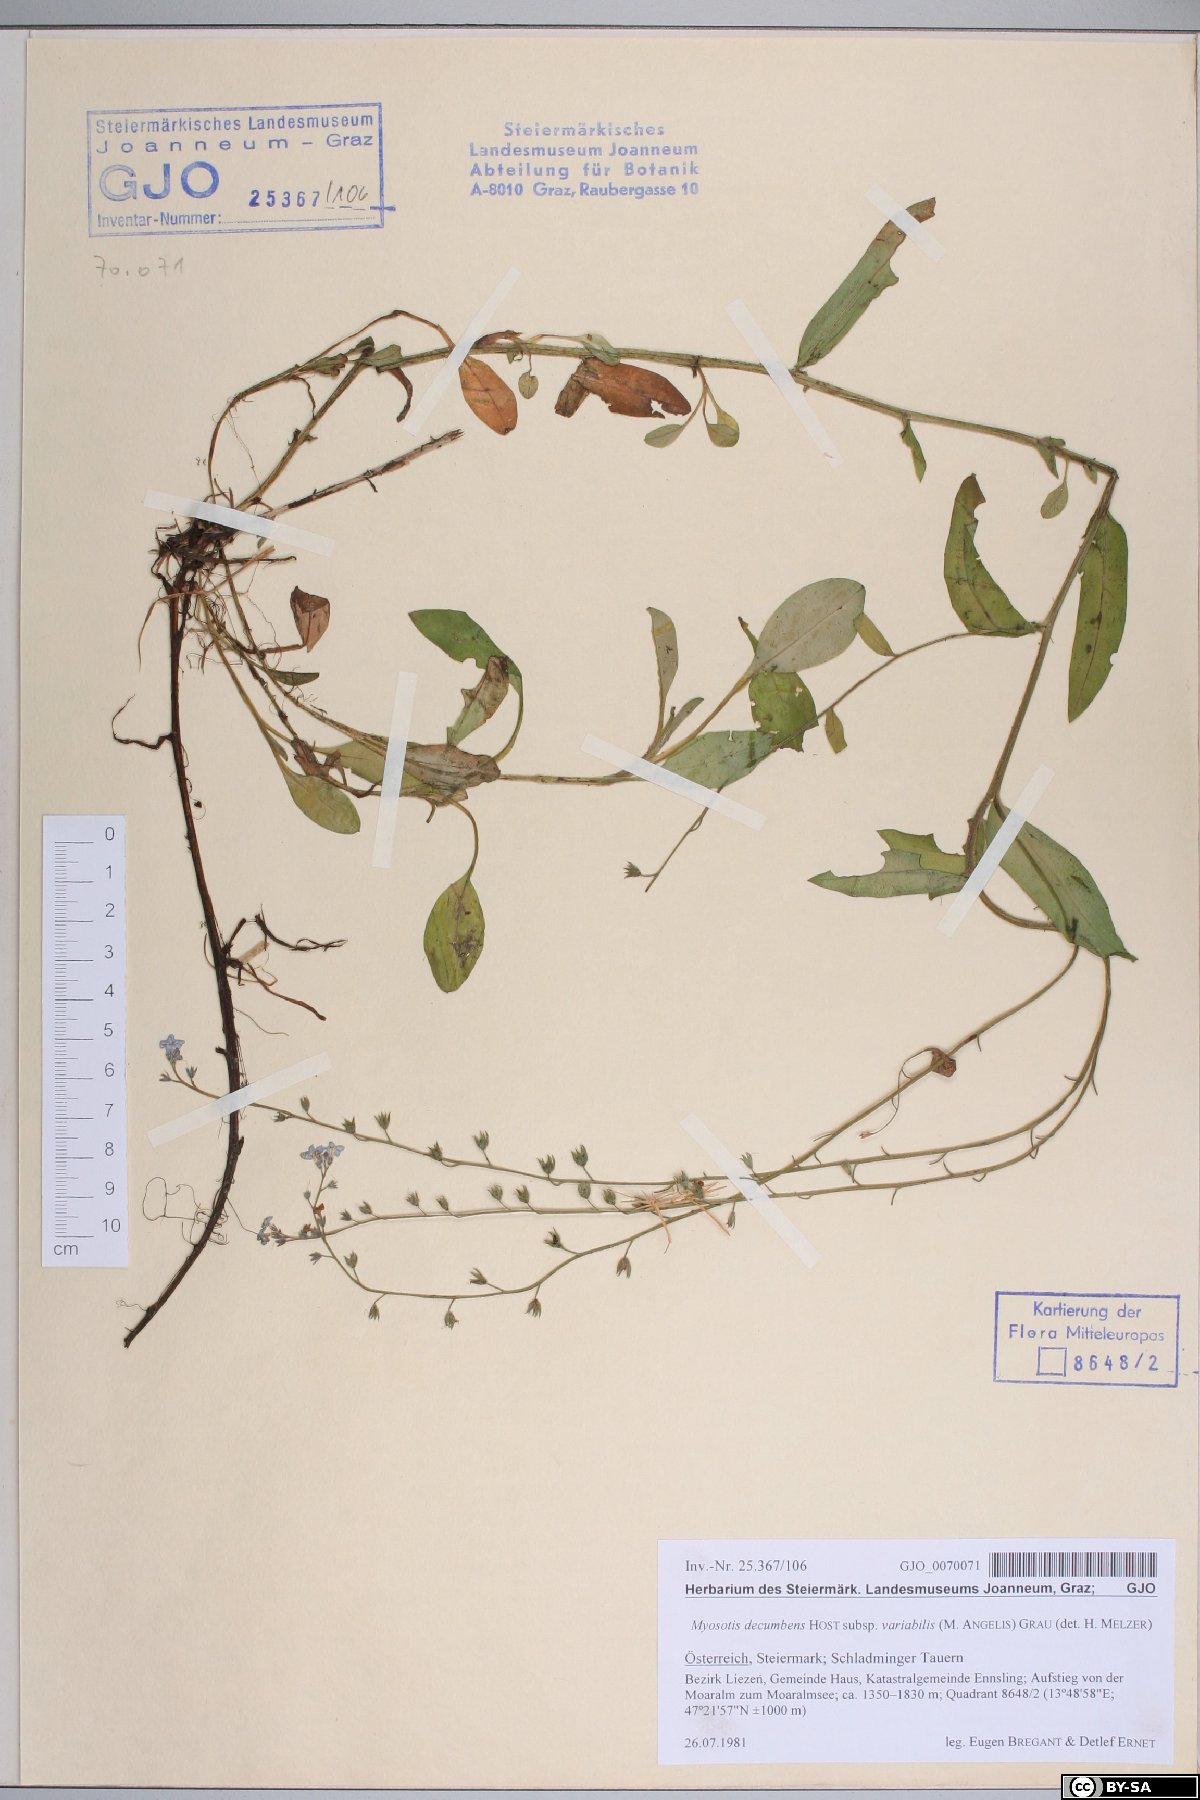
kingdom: Plantae
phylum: Tracheophyta
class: Magnoliopsida
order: Boraginales
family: Boraginaceae
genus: Myosotis
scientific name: Myosotis decumbens
